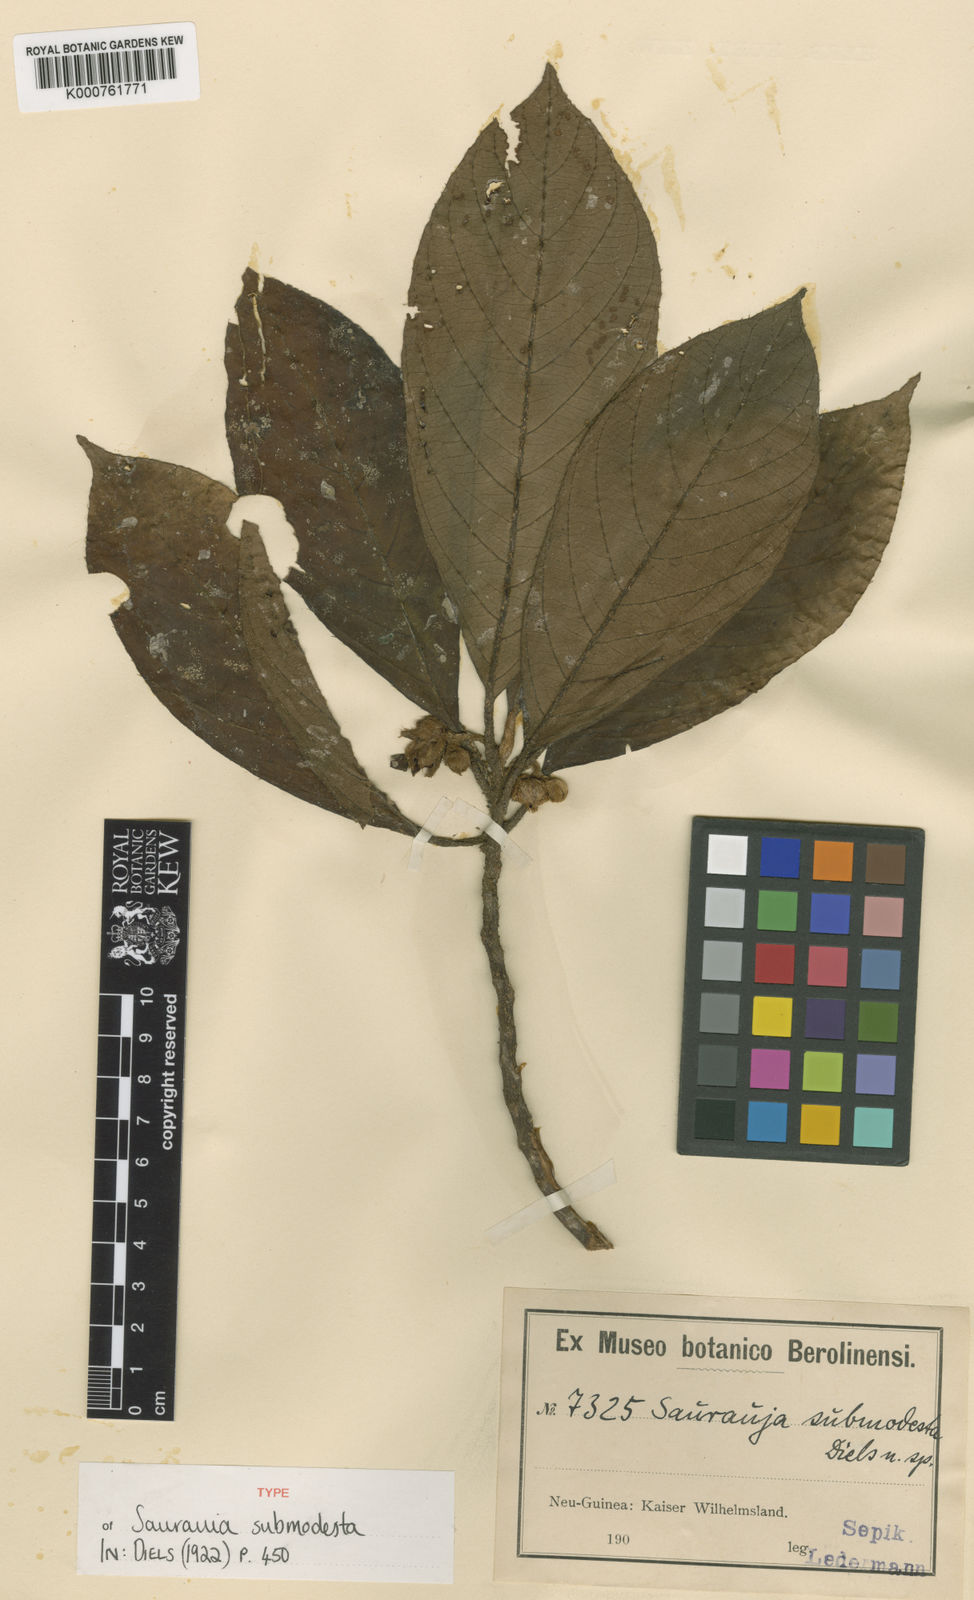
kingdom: Plantae
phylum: Tracheophyta
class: Magnoliopsida
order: Ericales
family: Actinidiaceae
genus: Saurauia
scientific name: Saurauia
